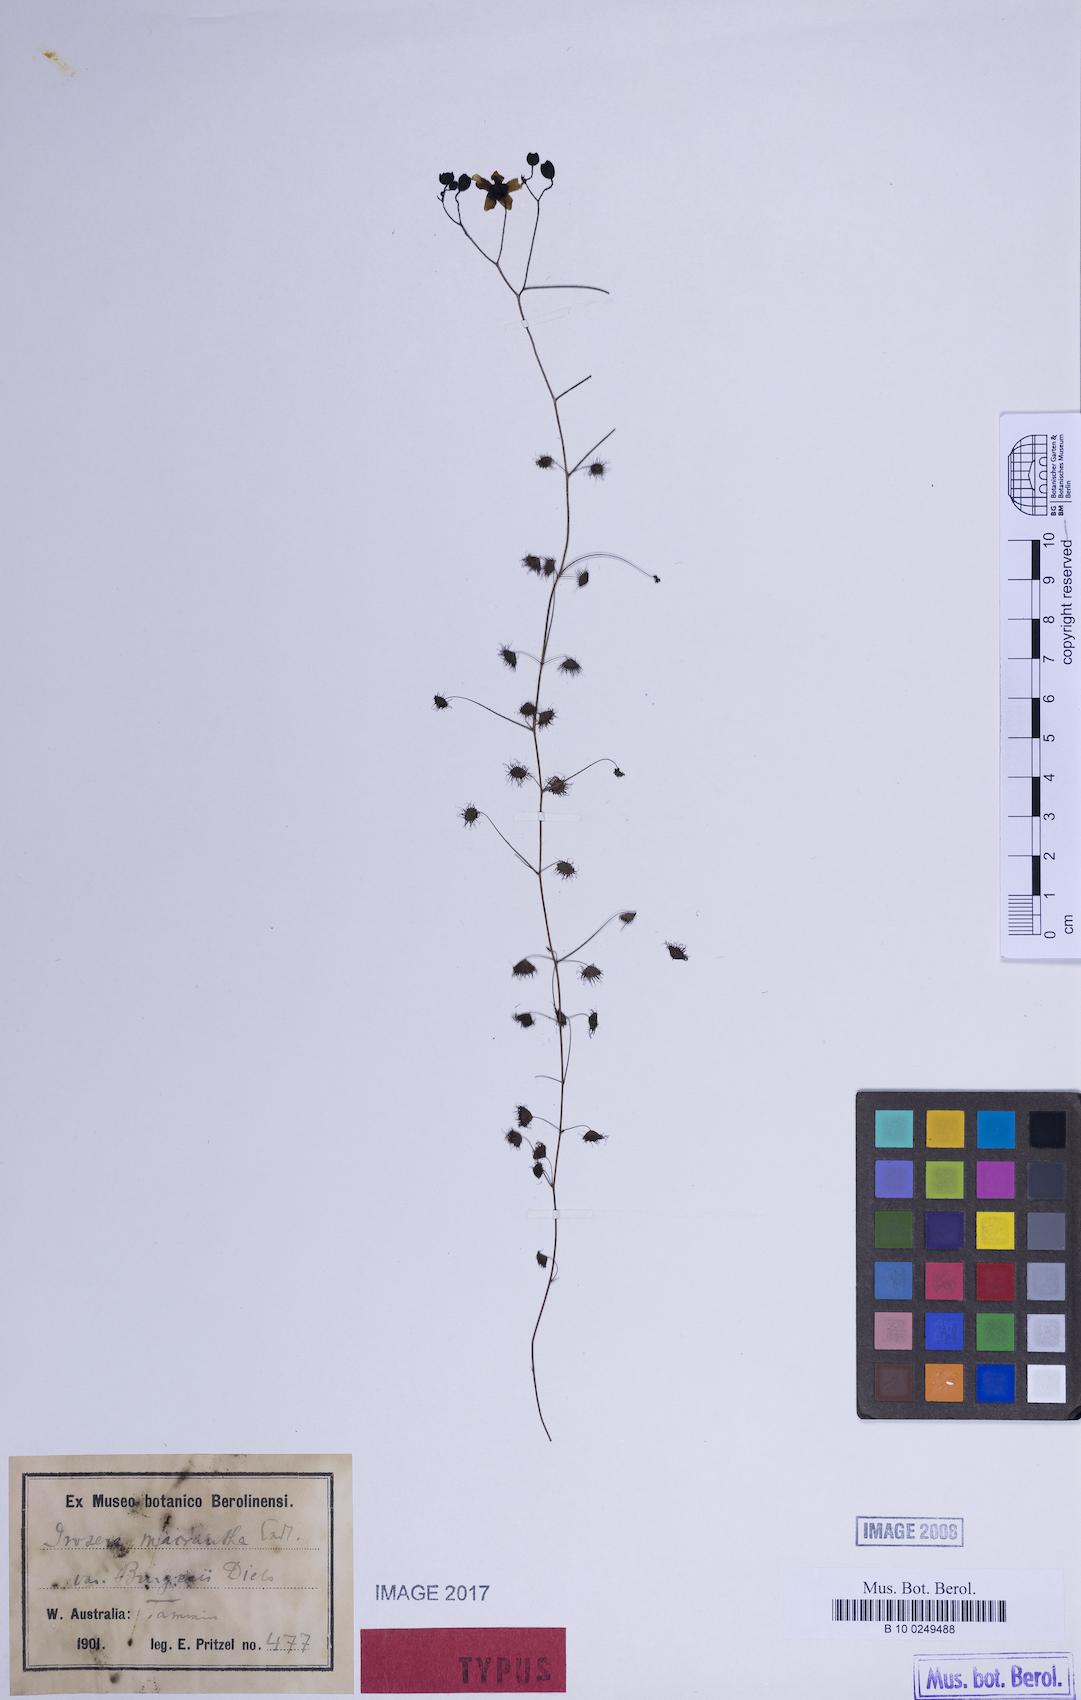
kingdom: Plantae
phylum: Tracheophyta
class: Magnoliopsida
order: Caryophyllales
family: Droseraceae
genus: Drosera
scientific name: Drosera macrantha
